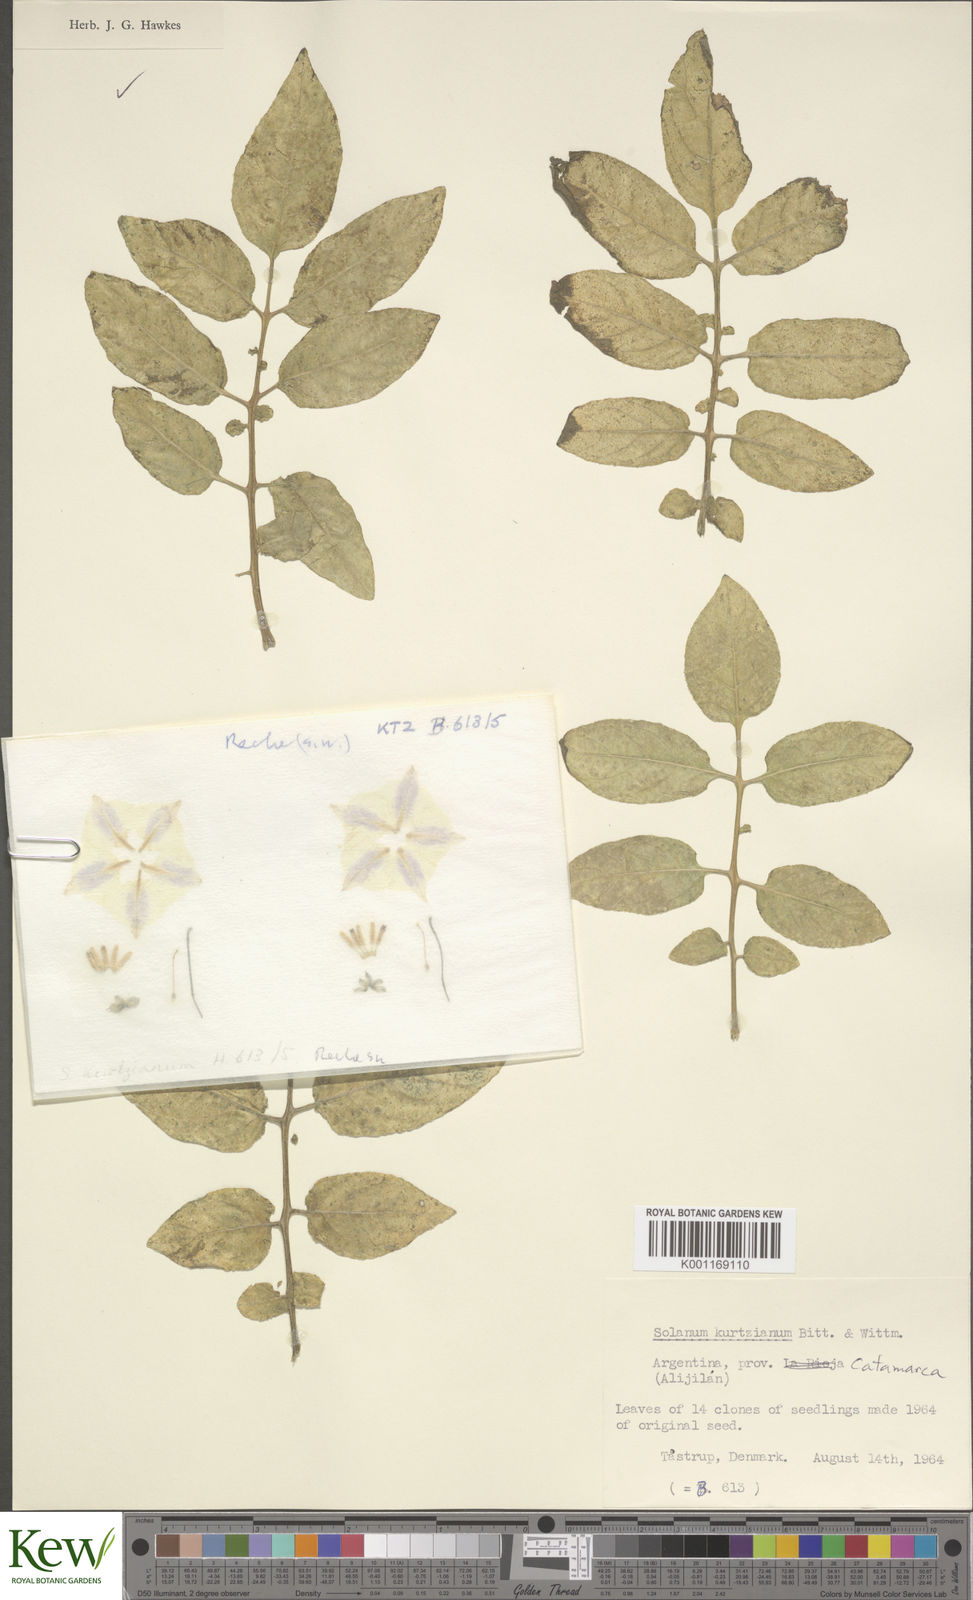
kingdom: Plantae
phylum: Tracheophyta
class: Magnoliopsida
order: Solanales
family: Solanaceae
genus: Solanum
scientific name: Solanum kurtzianum
